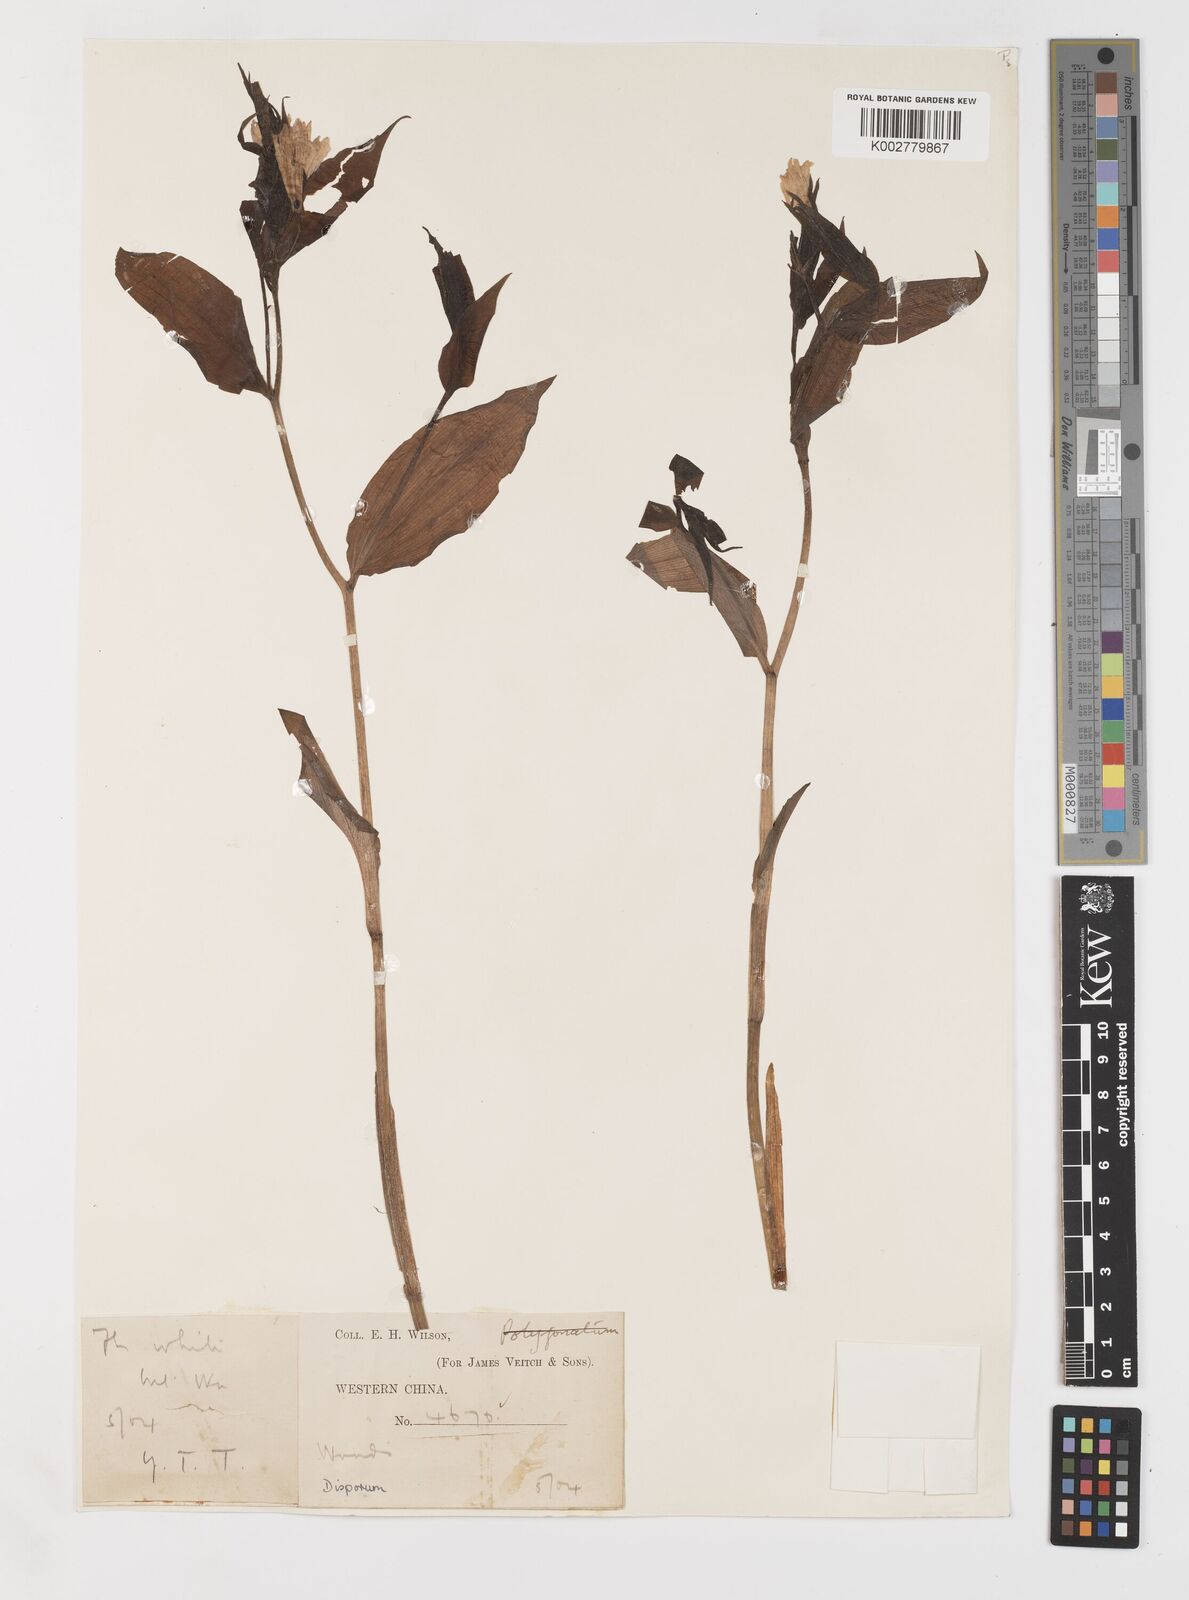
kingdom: Plantae
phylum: Tracheophyta
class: Liliopsida
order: Liliales
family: Colchicaceae
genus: Disporum
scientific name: Disporum
